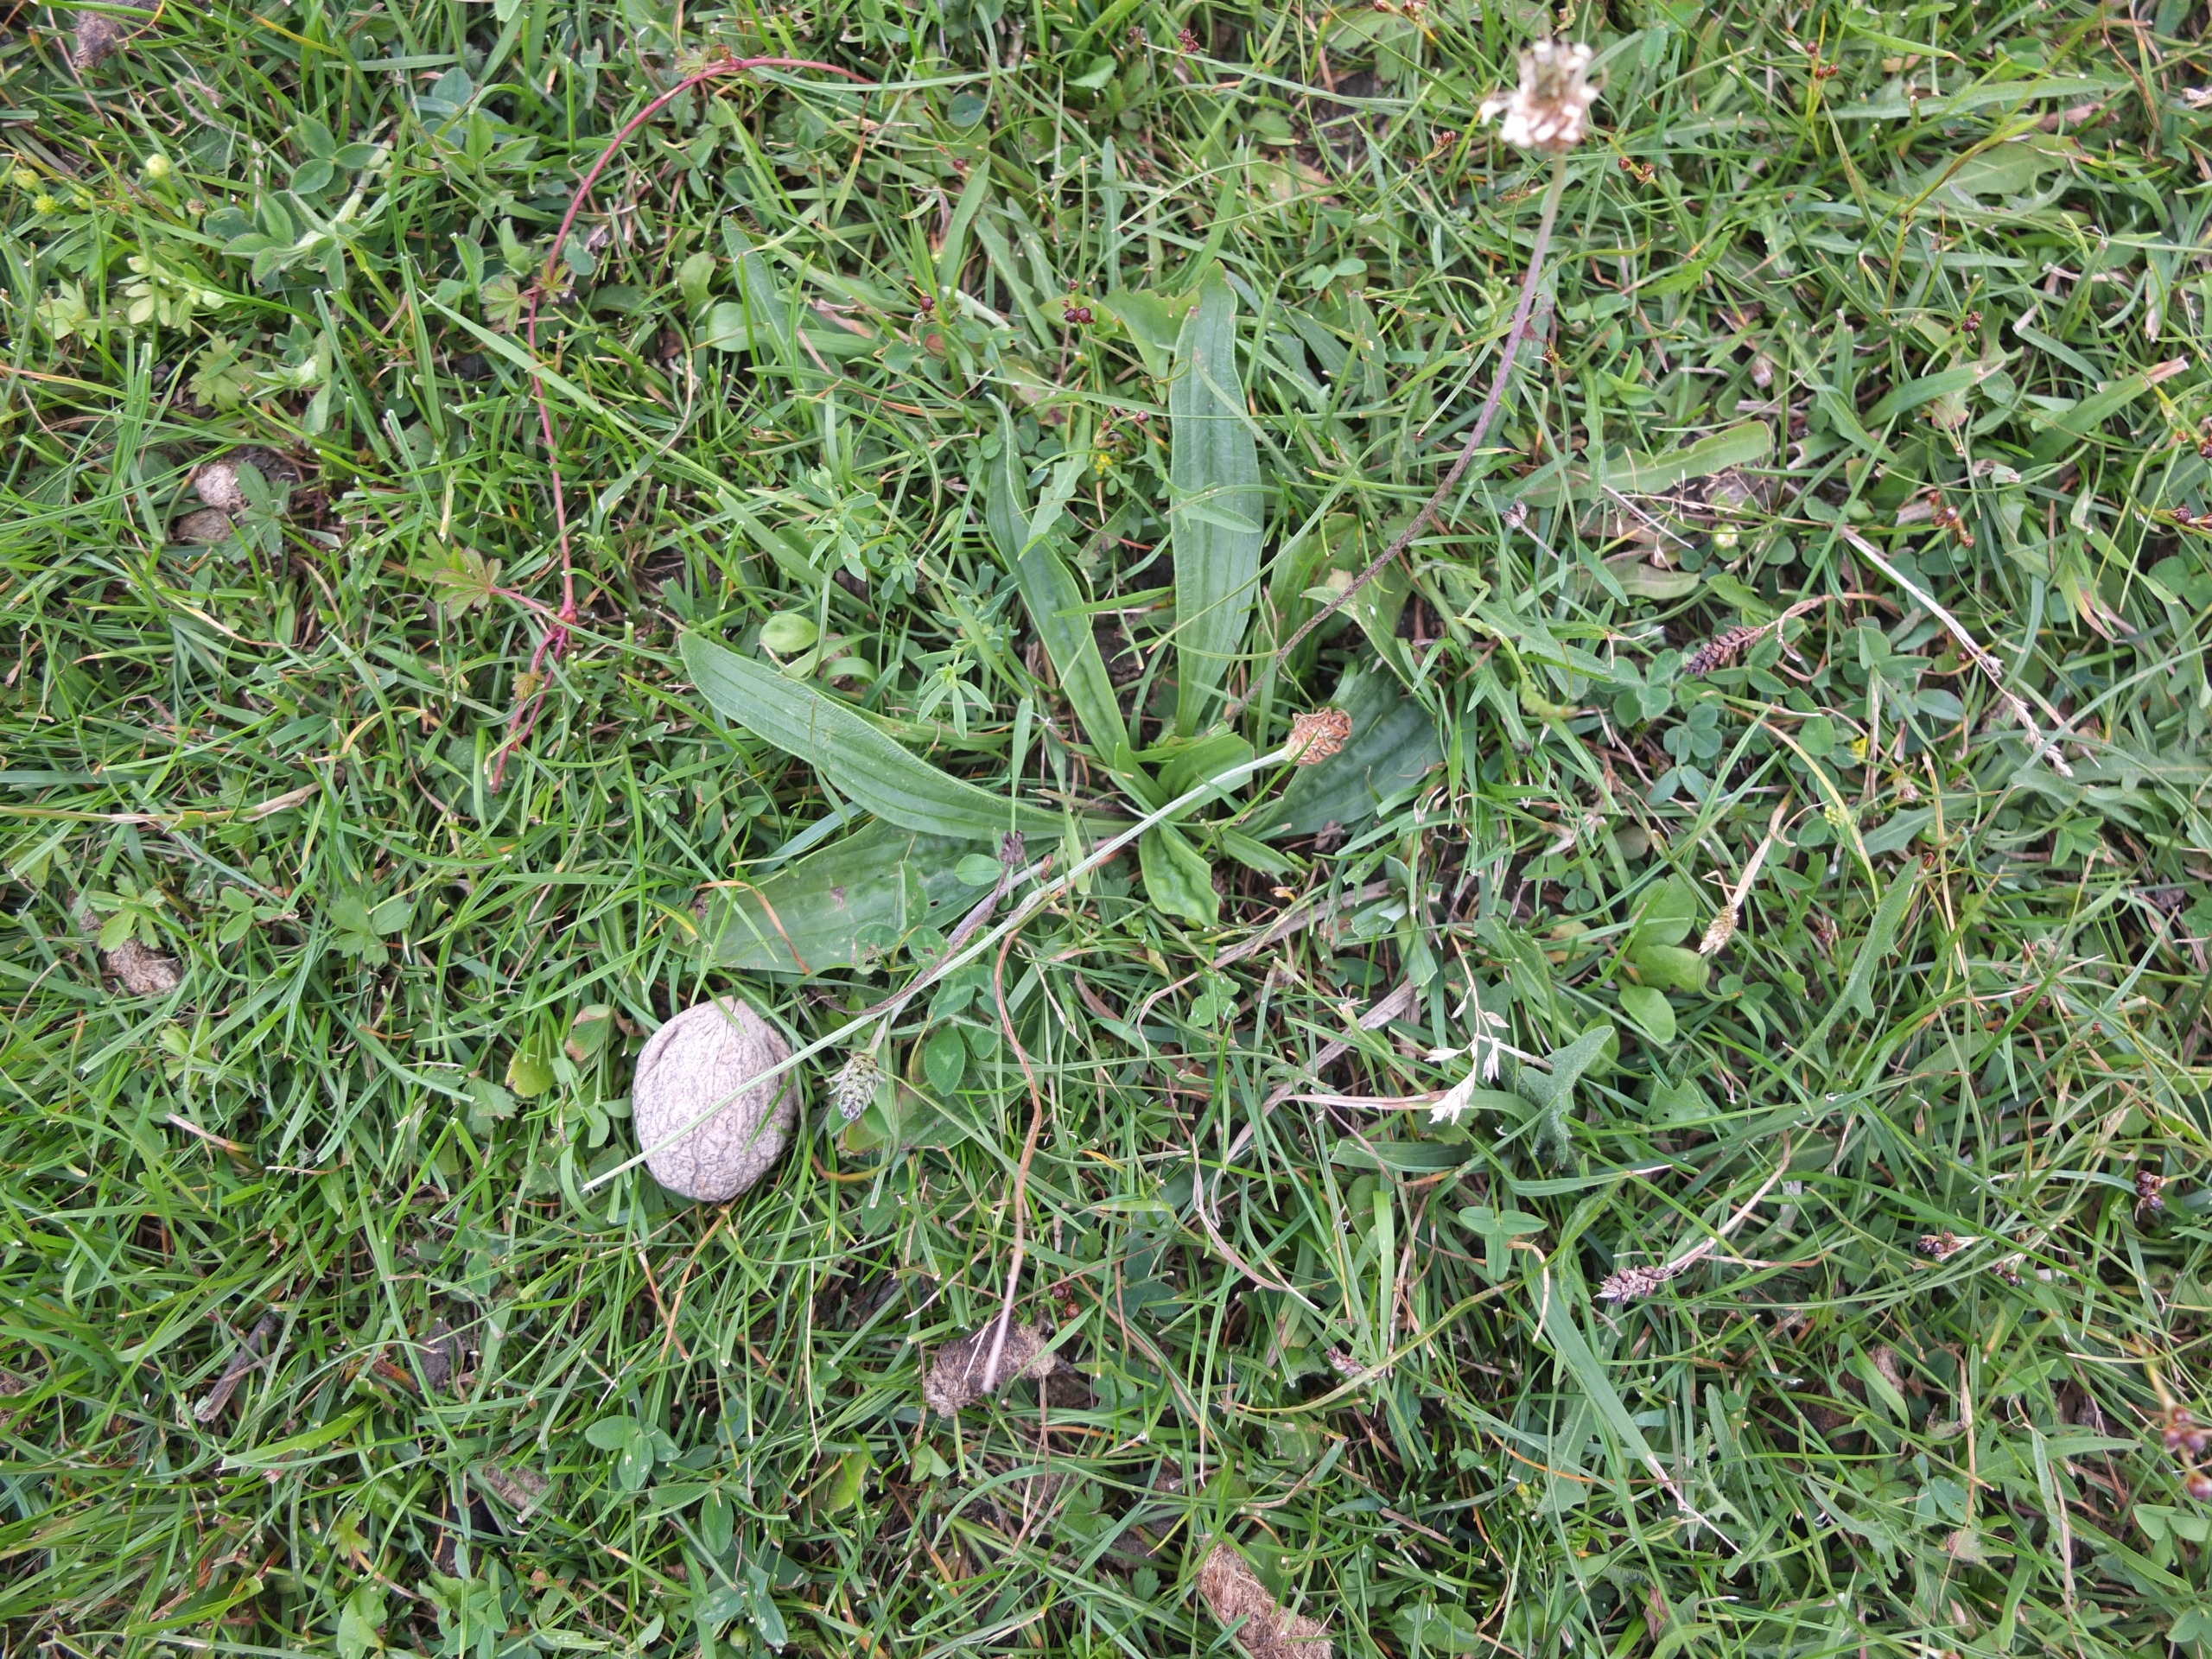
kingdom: Plantae
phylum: Tracheophyta
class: Magnoliopsida
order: Lamiales
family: Plantaginaceae
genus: Plantago
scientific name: Plantago lanceolata
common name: Lancet-vejbred
